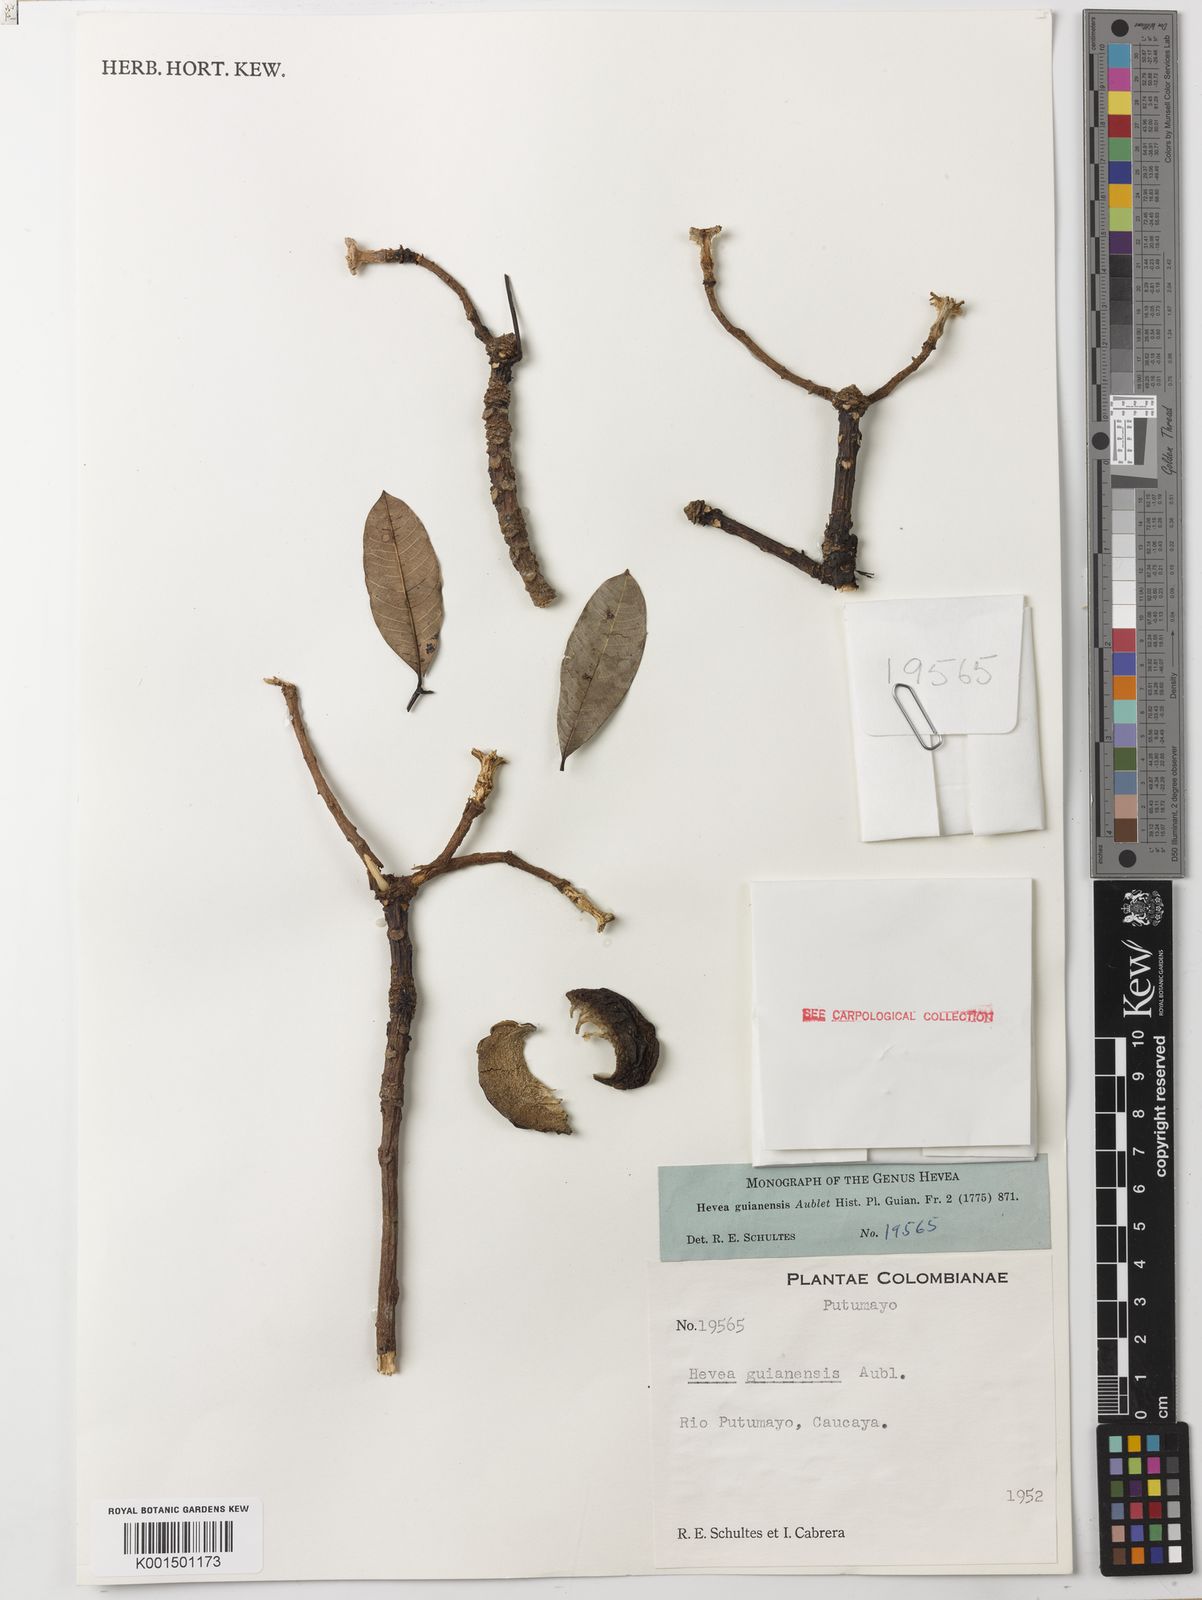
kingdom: Plantae
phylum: Tracheophyta
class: Magnoliopsida
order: Malpighiales
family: Euphorbiaceae
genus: Hevea
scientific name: Hevea guianensis
